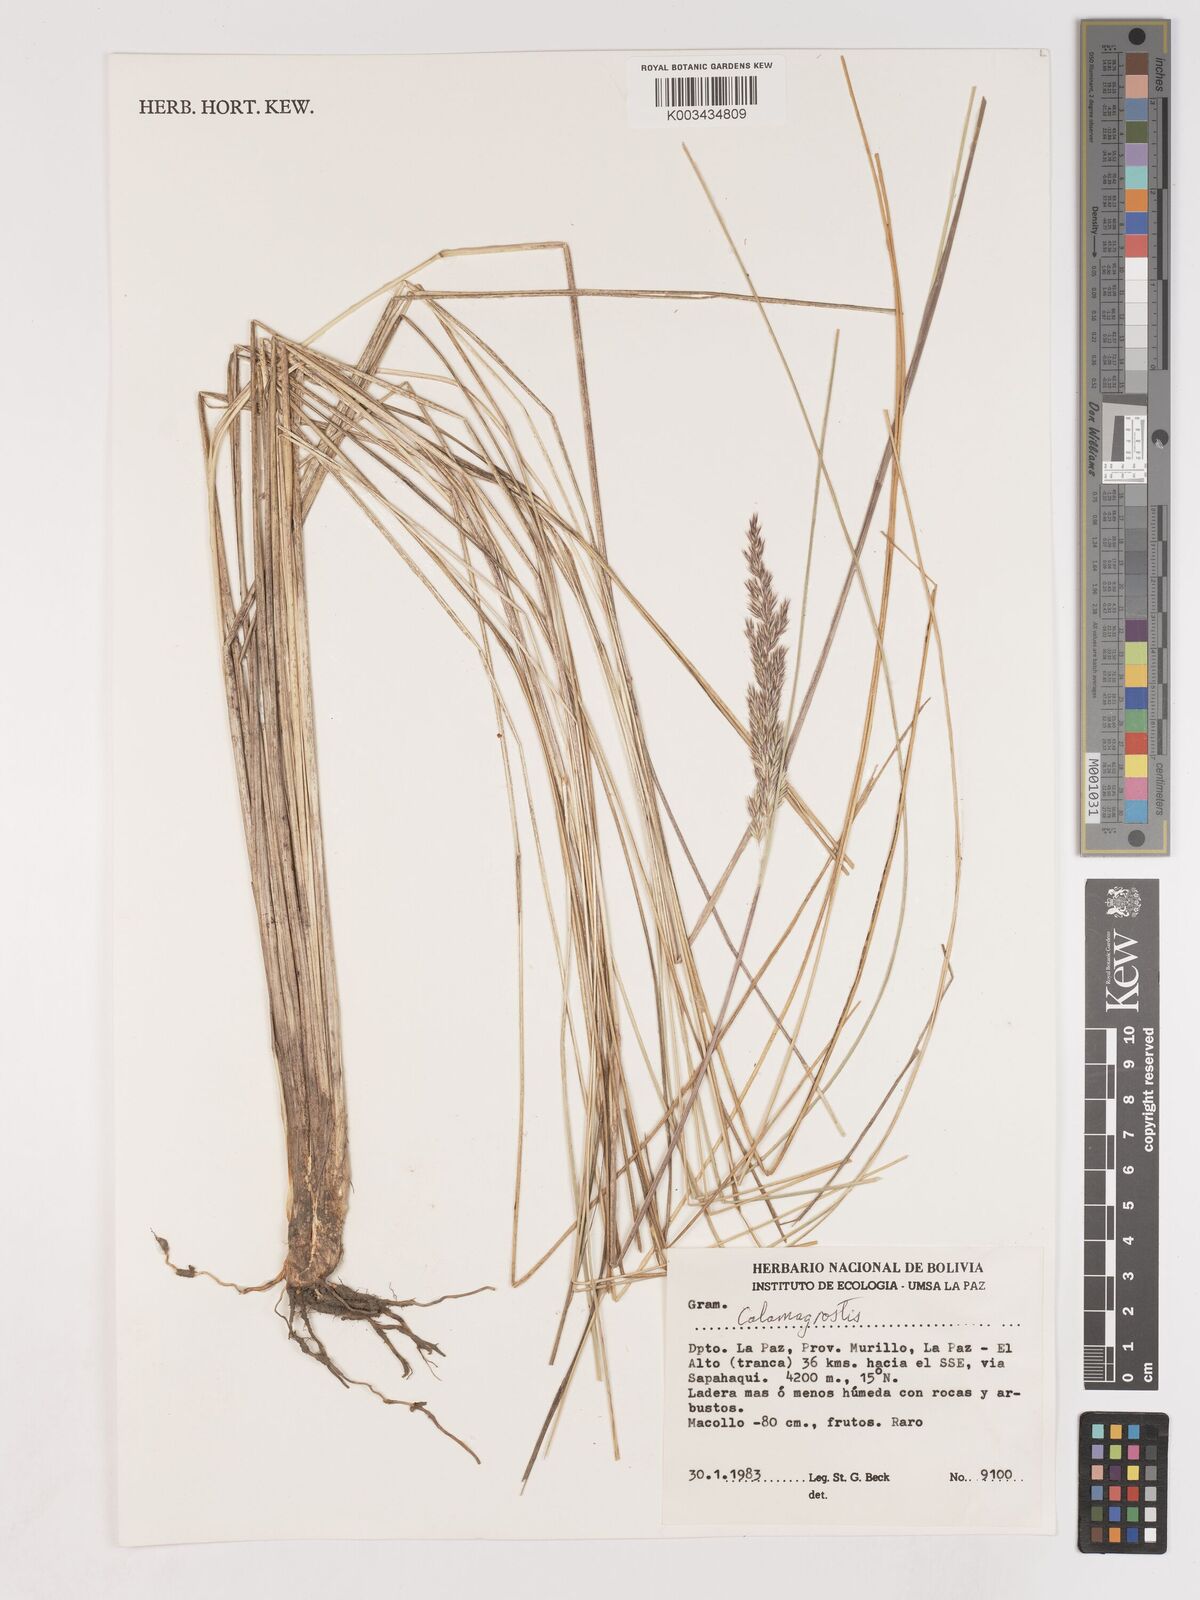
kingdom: Plantae
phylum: Tracheophyta
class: Liliopsida
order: Poales
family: Poaceae
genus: Cinnagrostis
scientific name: Cinnagrostis orbignyana
